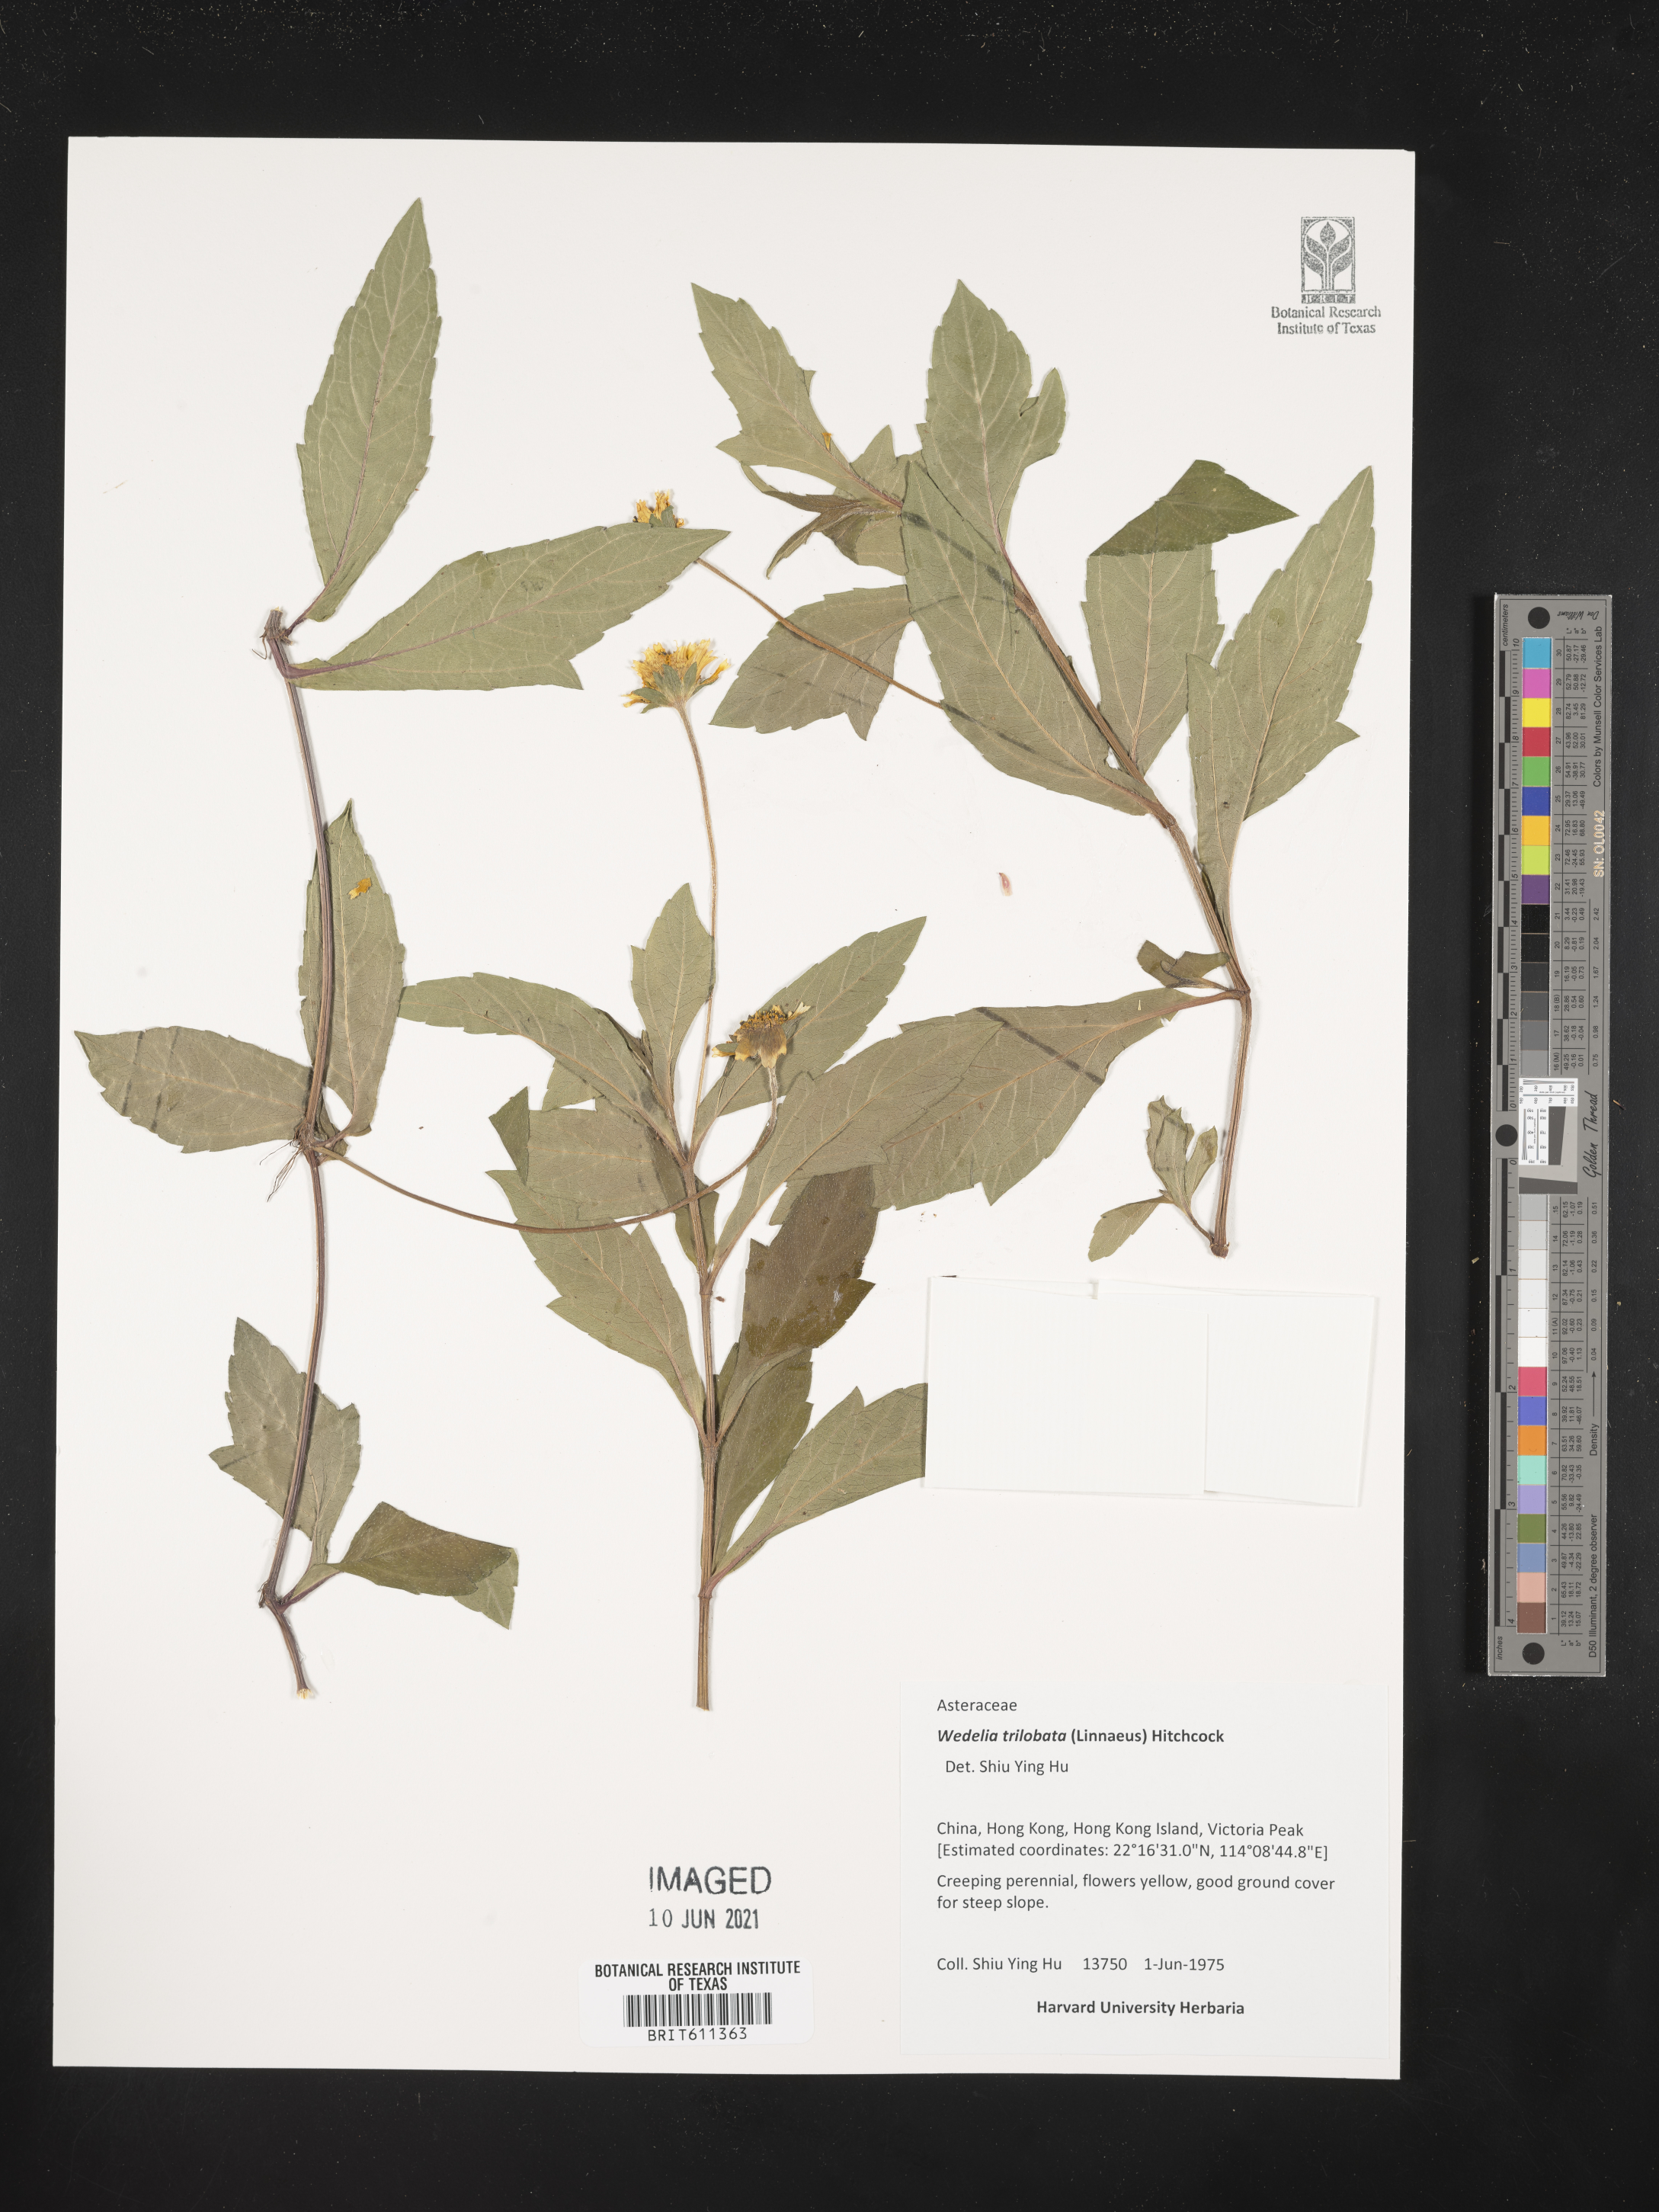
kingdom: Plantae
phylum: Tracheophyta
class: Magnoliopsida
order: Asterales
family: Asteraceae
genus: Sphagneticola
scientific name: Sphagneticola trilobata
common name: Bay biscayne creeping-oxeye
